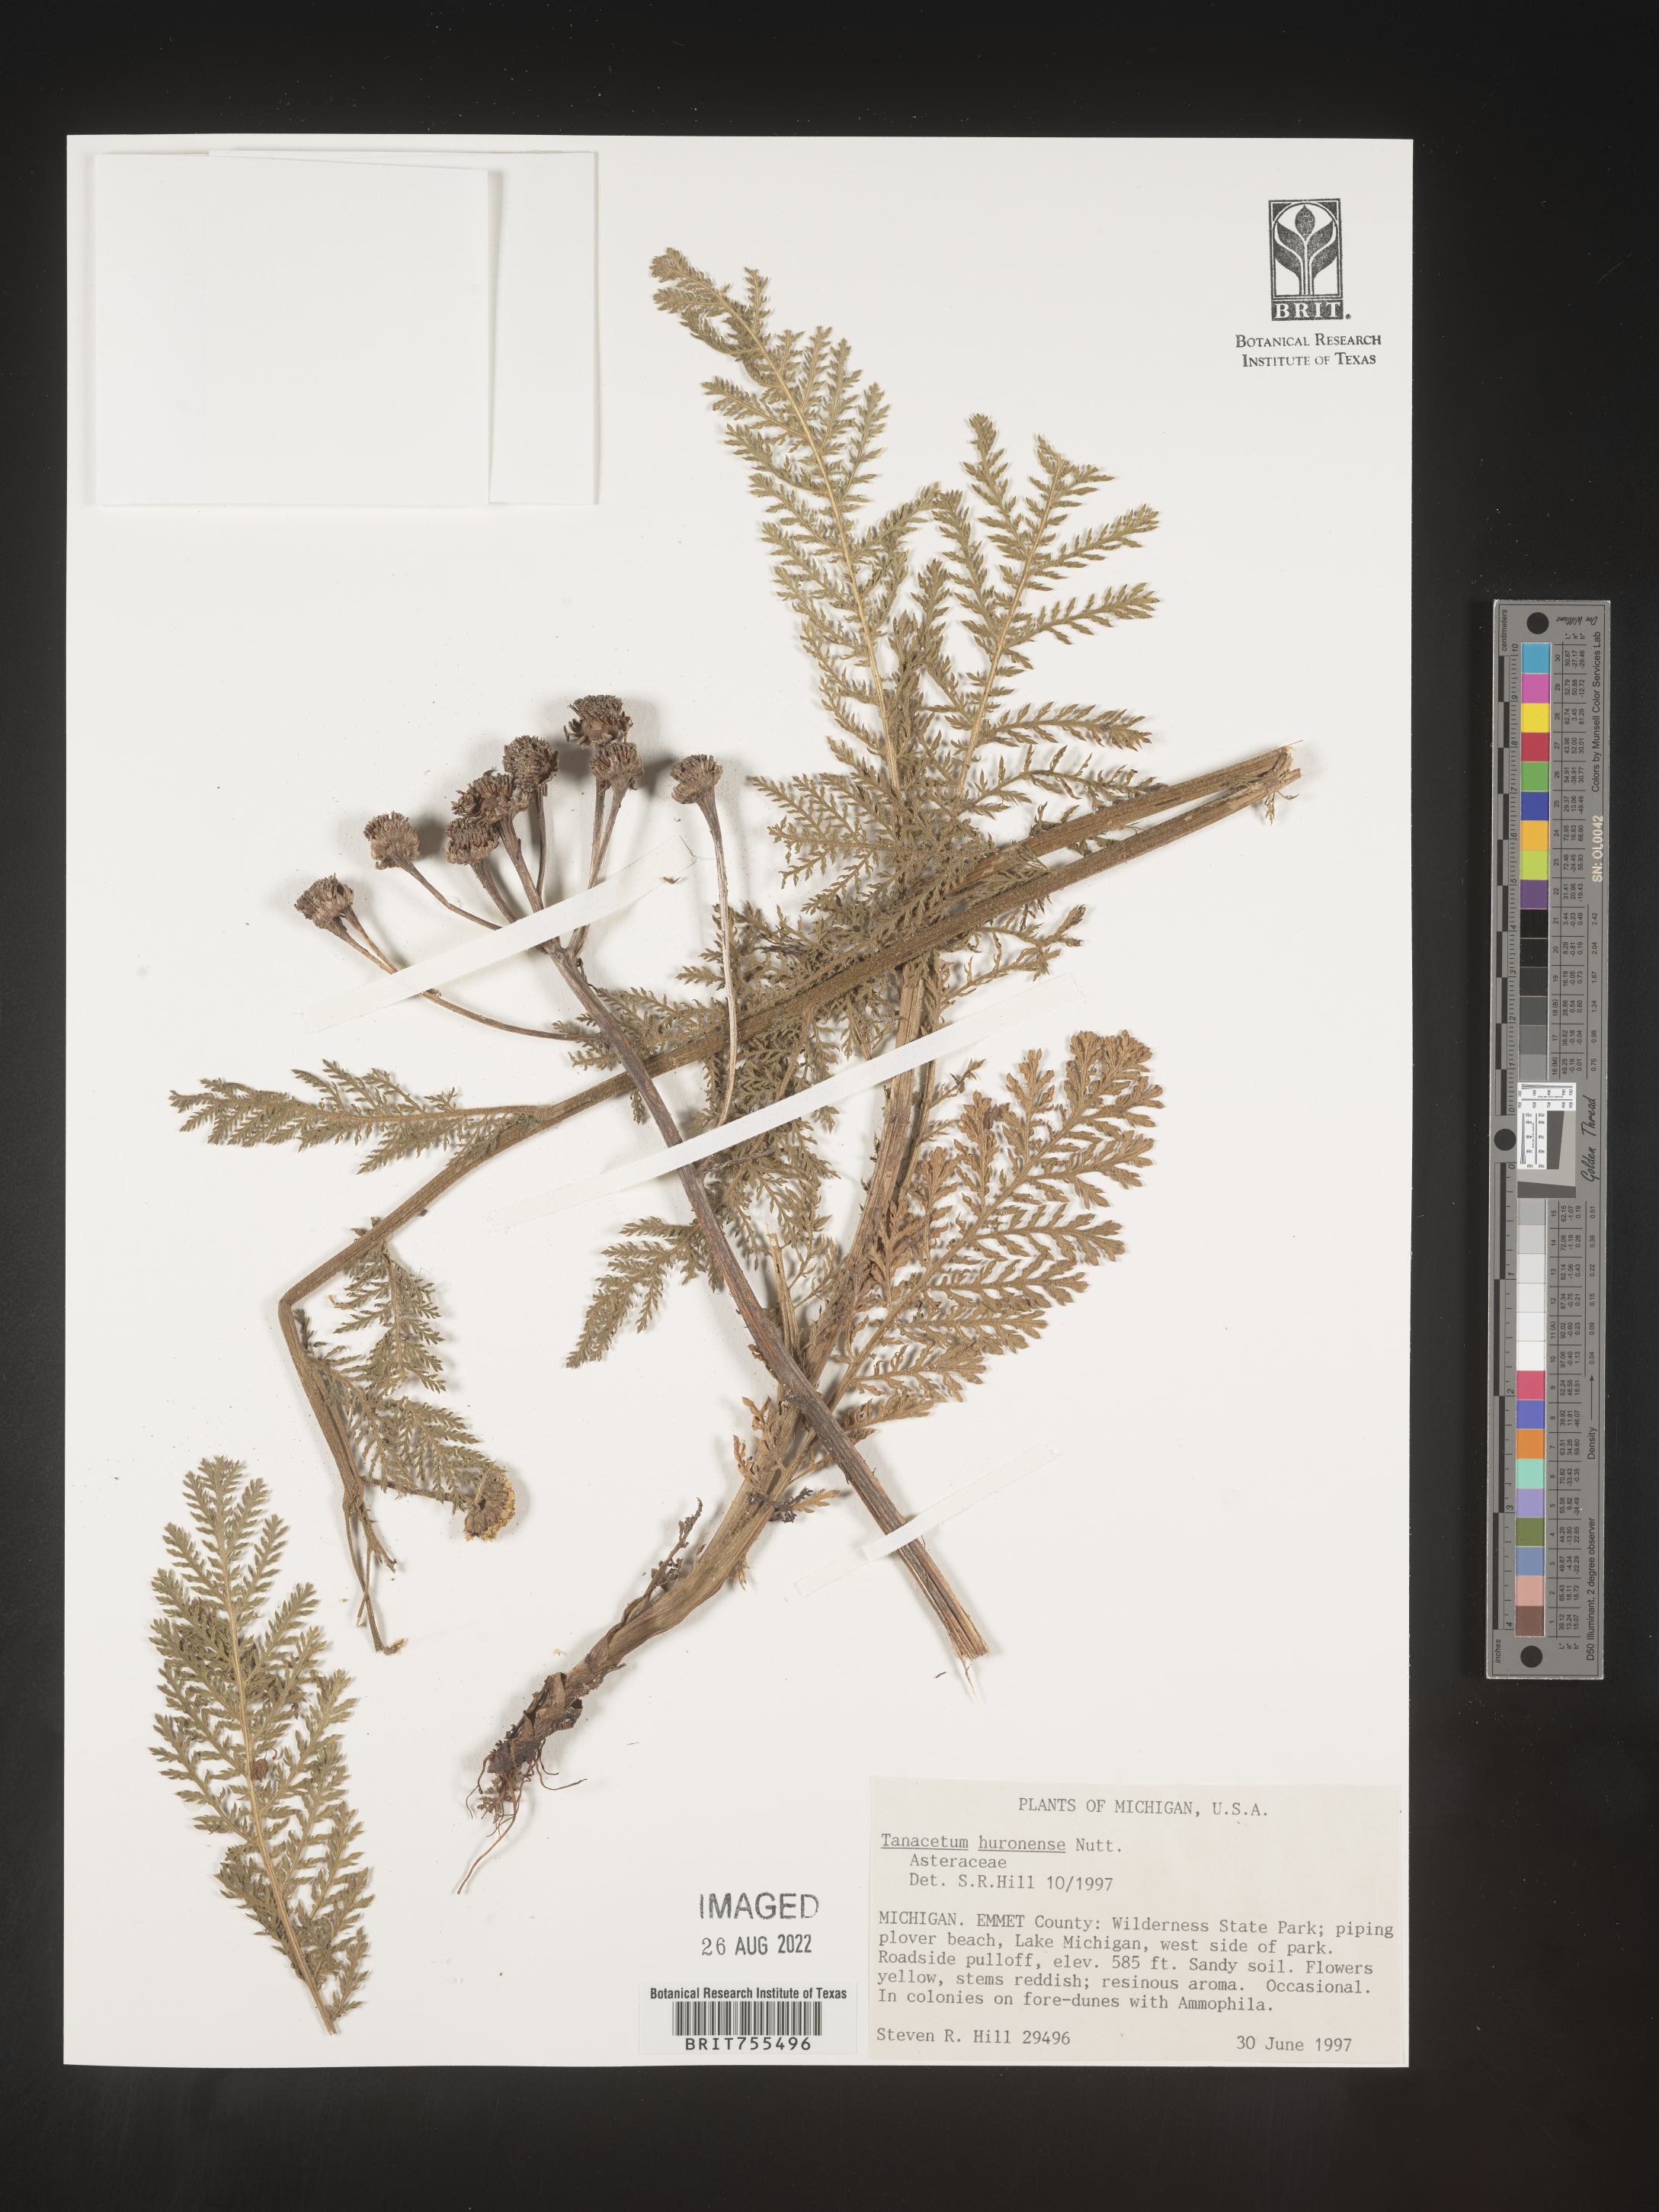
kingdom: Plantae
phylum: Tracheophyta
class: Magnoliopsida
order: Asterales
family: Asteraceae
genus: Tanacetum
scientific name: Tanacetum bipinnatum
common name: Dwarf tansy
